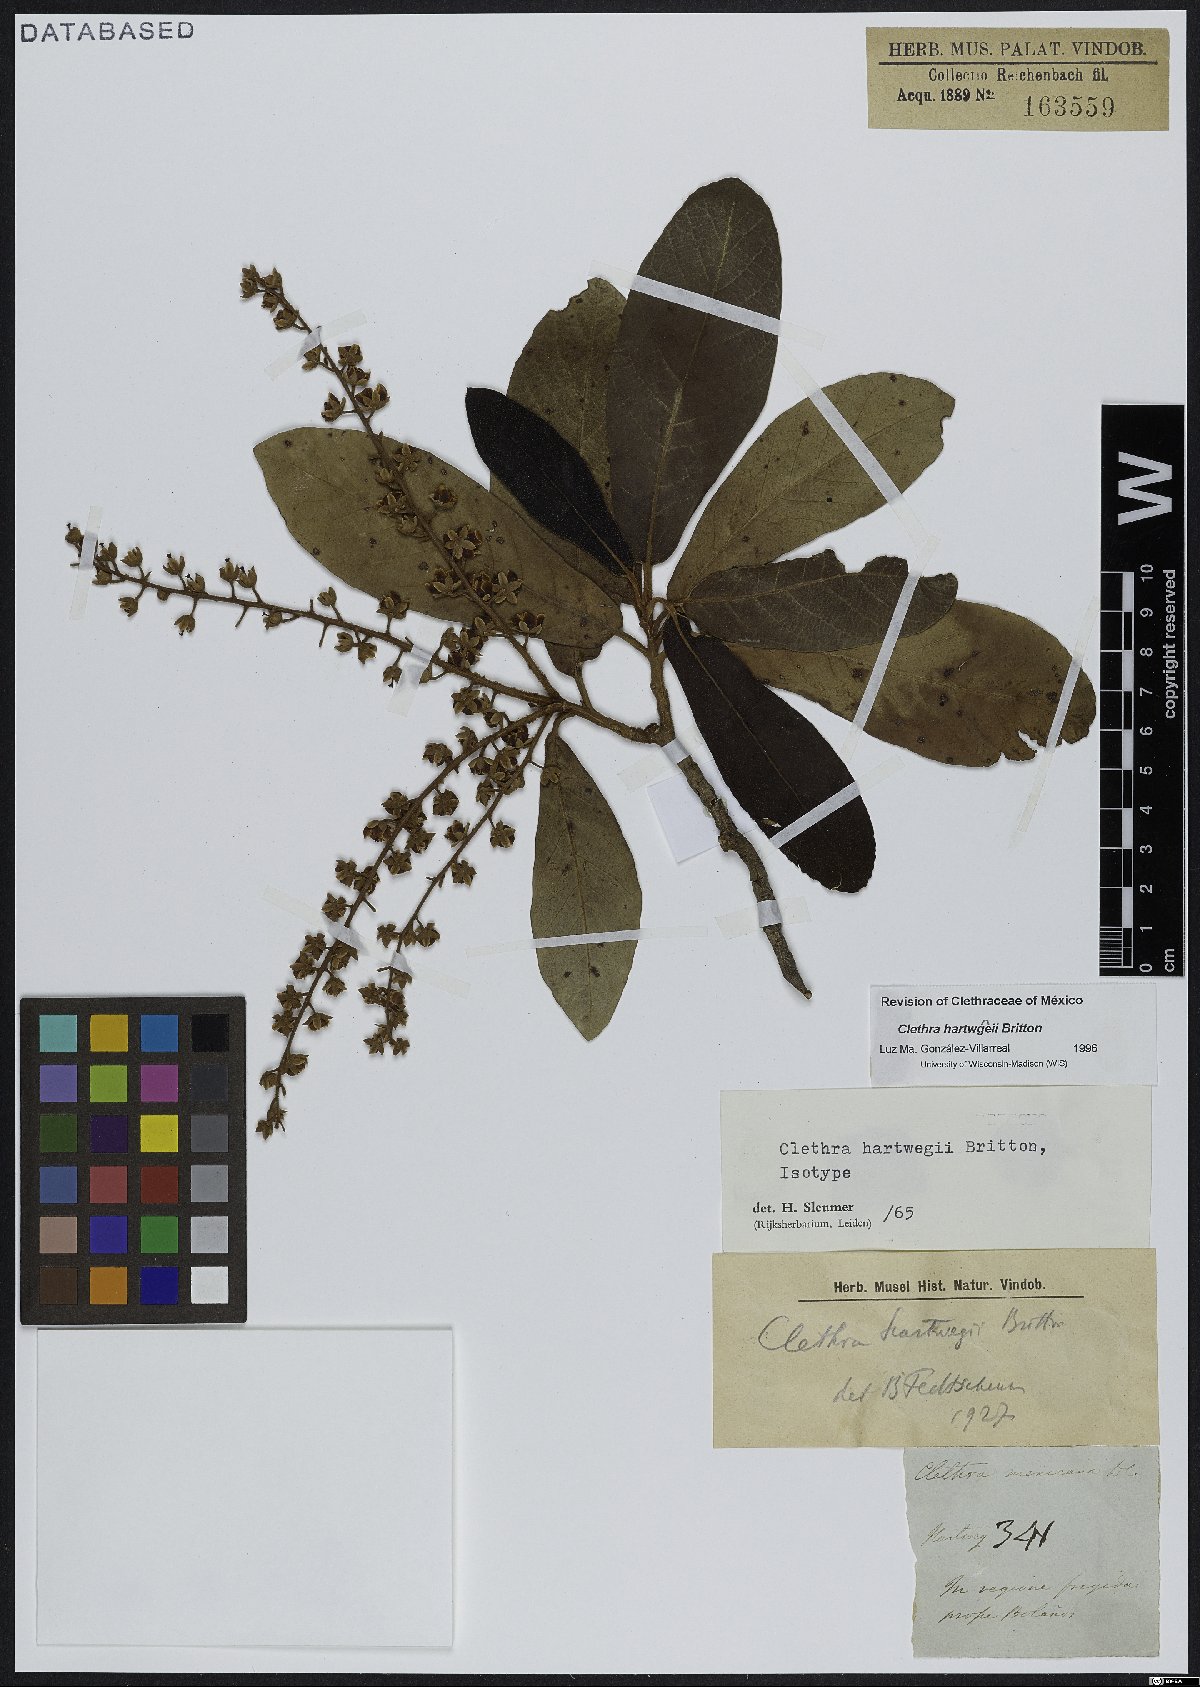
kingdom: Plantae
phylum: Tracheophyta
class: Magnoliopsida
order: Ericales
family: Clethraceae
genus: Clethra
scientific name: Clethra hartwegii
